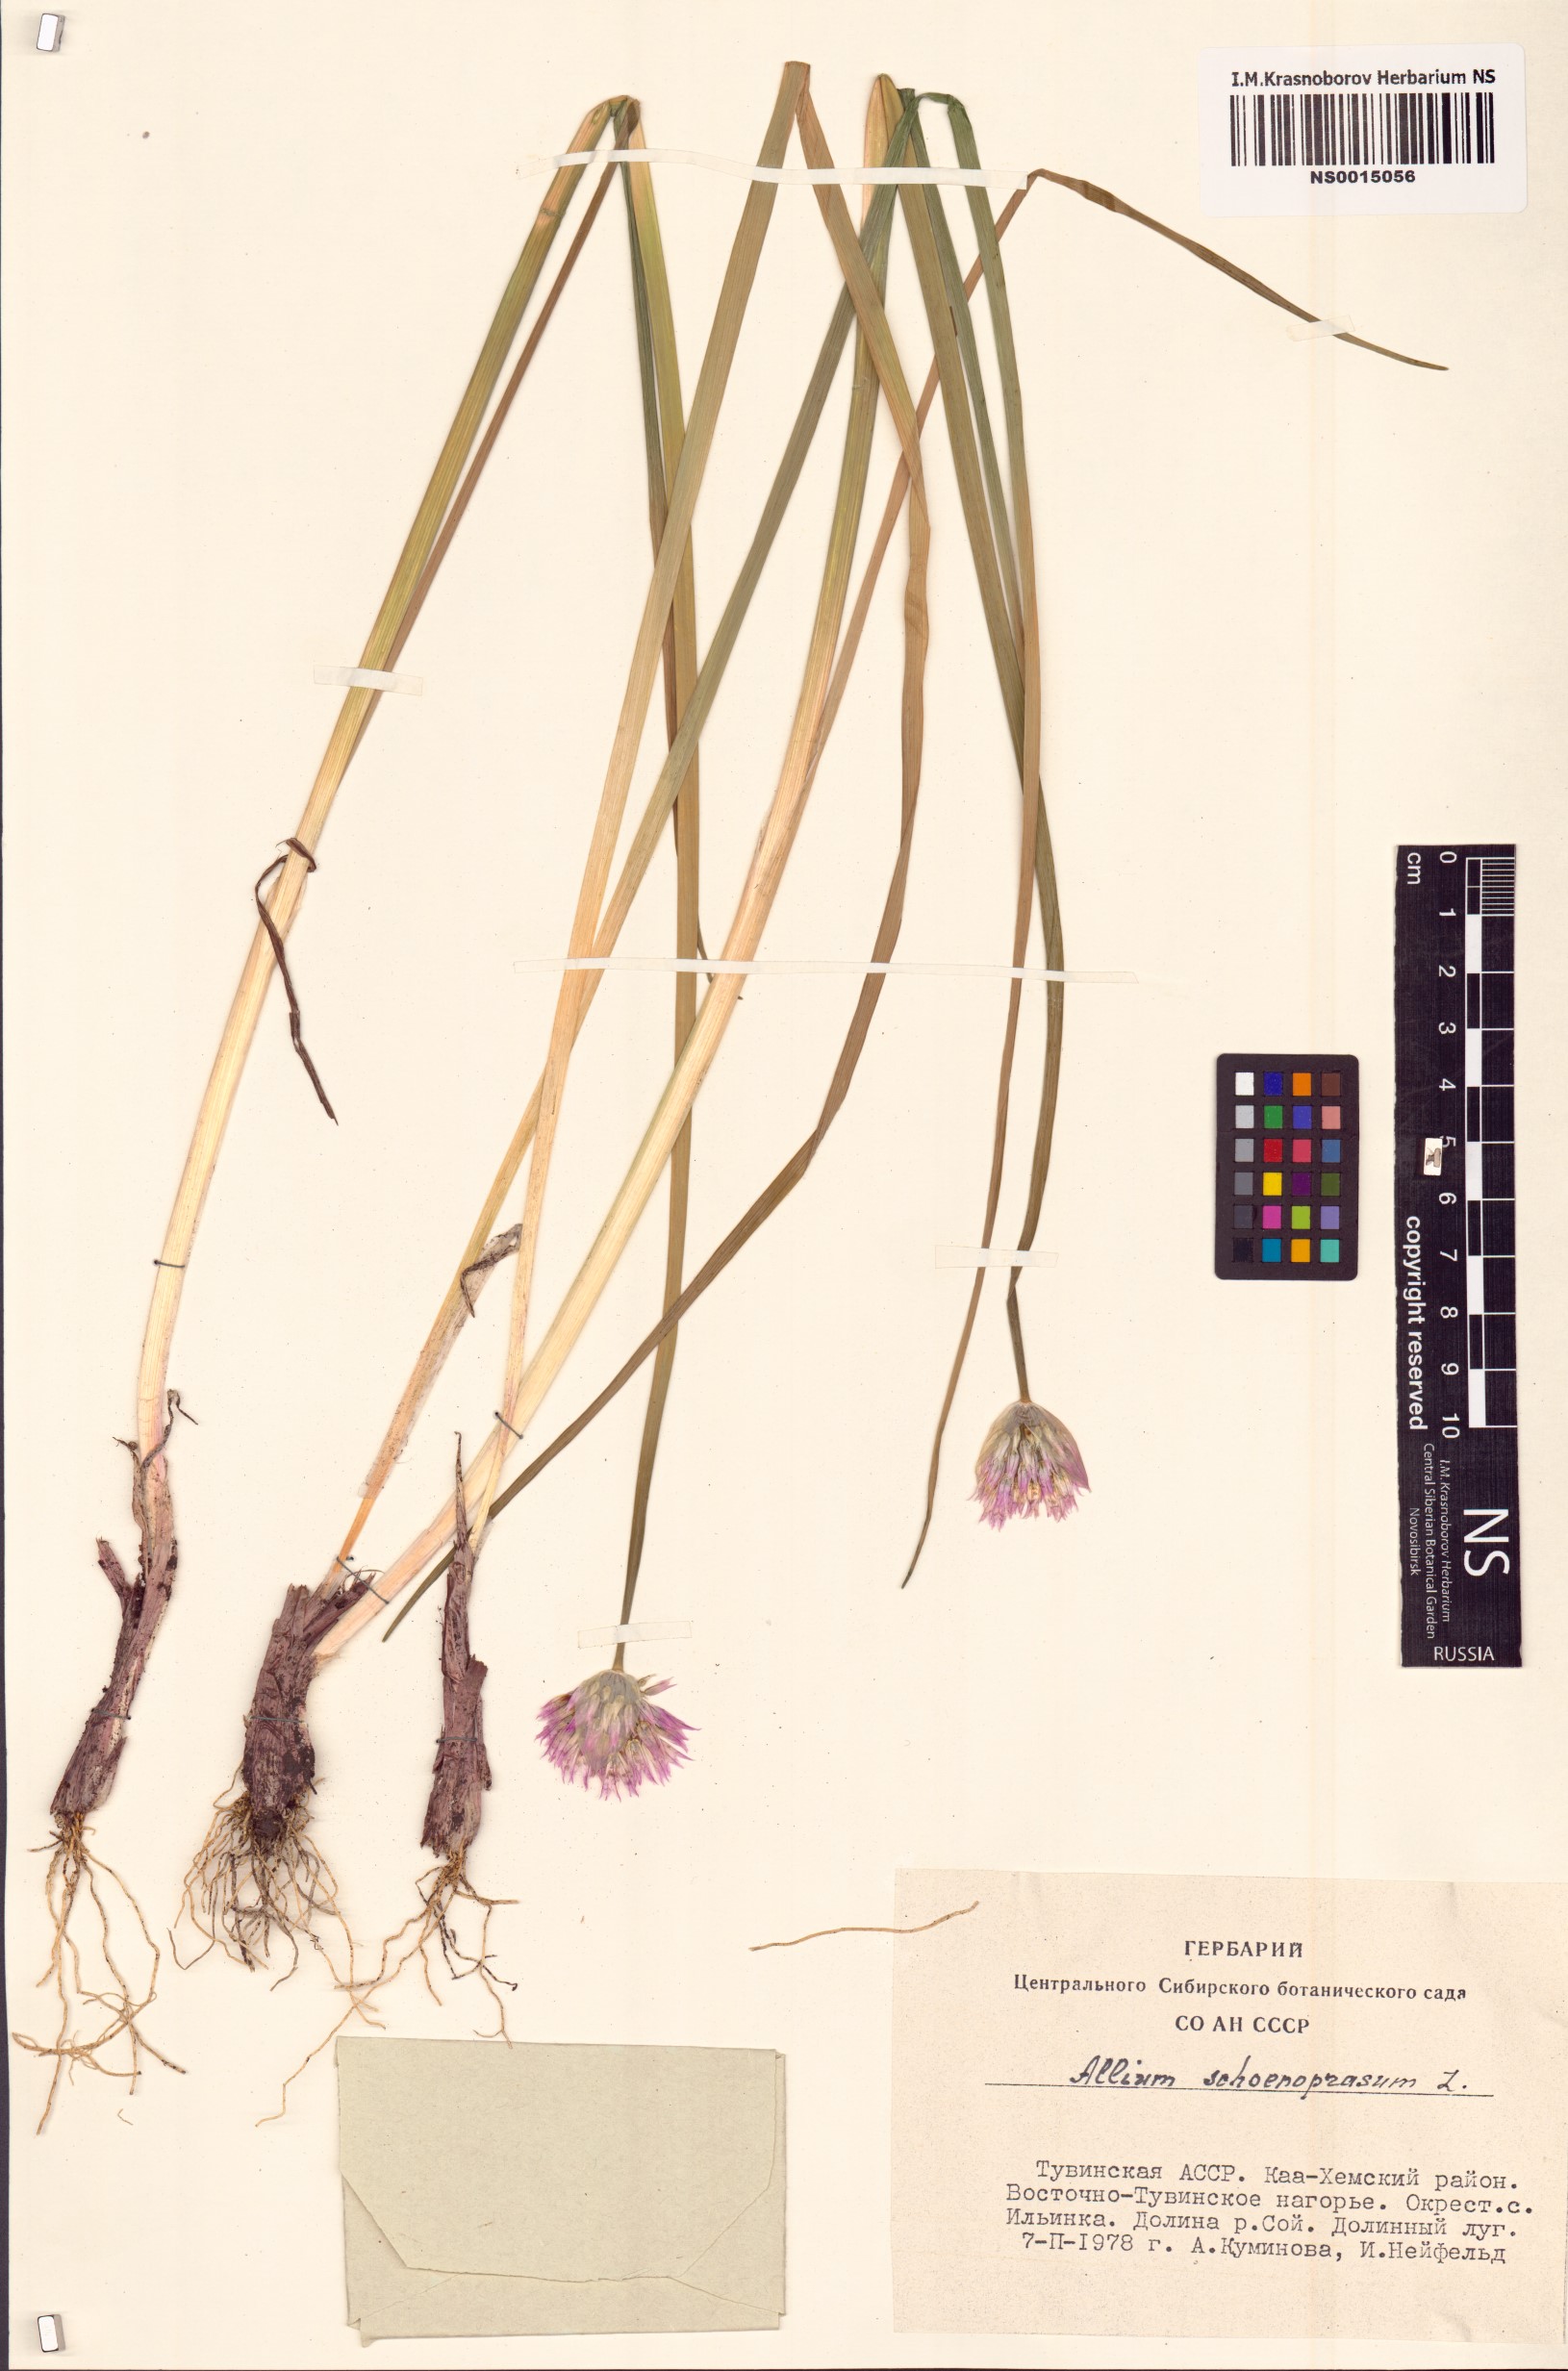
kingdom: Plantae
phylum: Tracheophyta
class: Liliopsida
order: Asparagales
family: Amaryllidaceae
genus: Allium
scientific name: Allium schoenoprasum
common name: Chives
